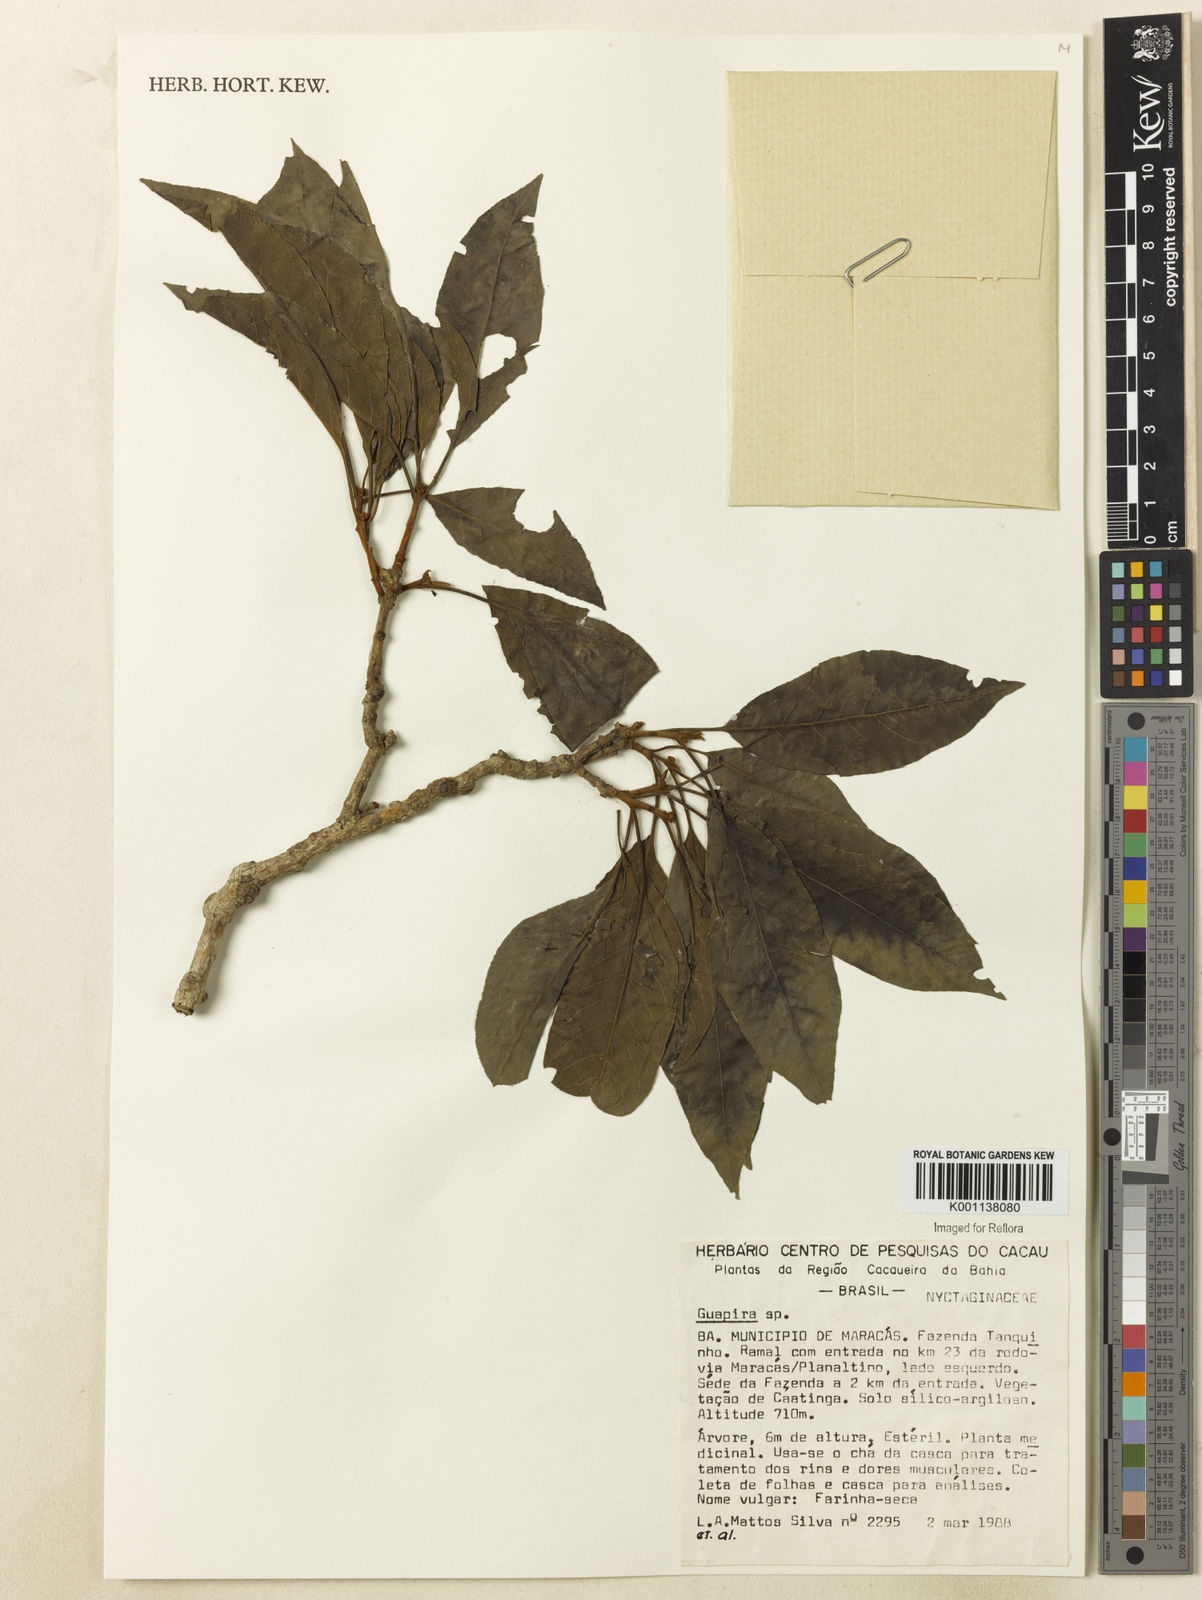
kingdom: Plantae
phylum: Tracheophyta
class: Magnoliopsida
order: Caryophyllales
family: Nyctaginaceae
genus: Neea
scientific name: Neea
